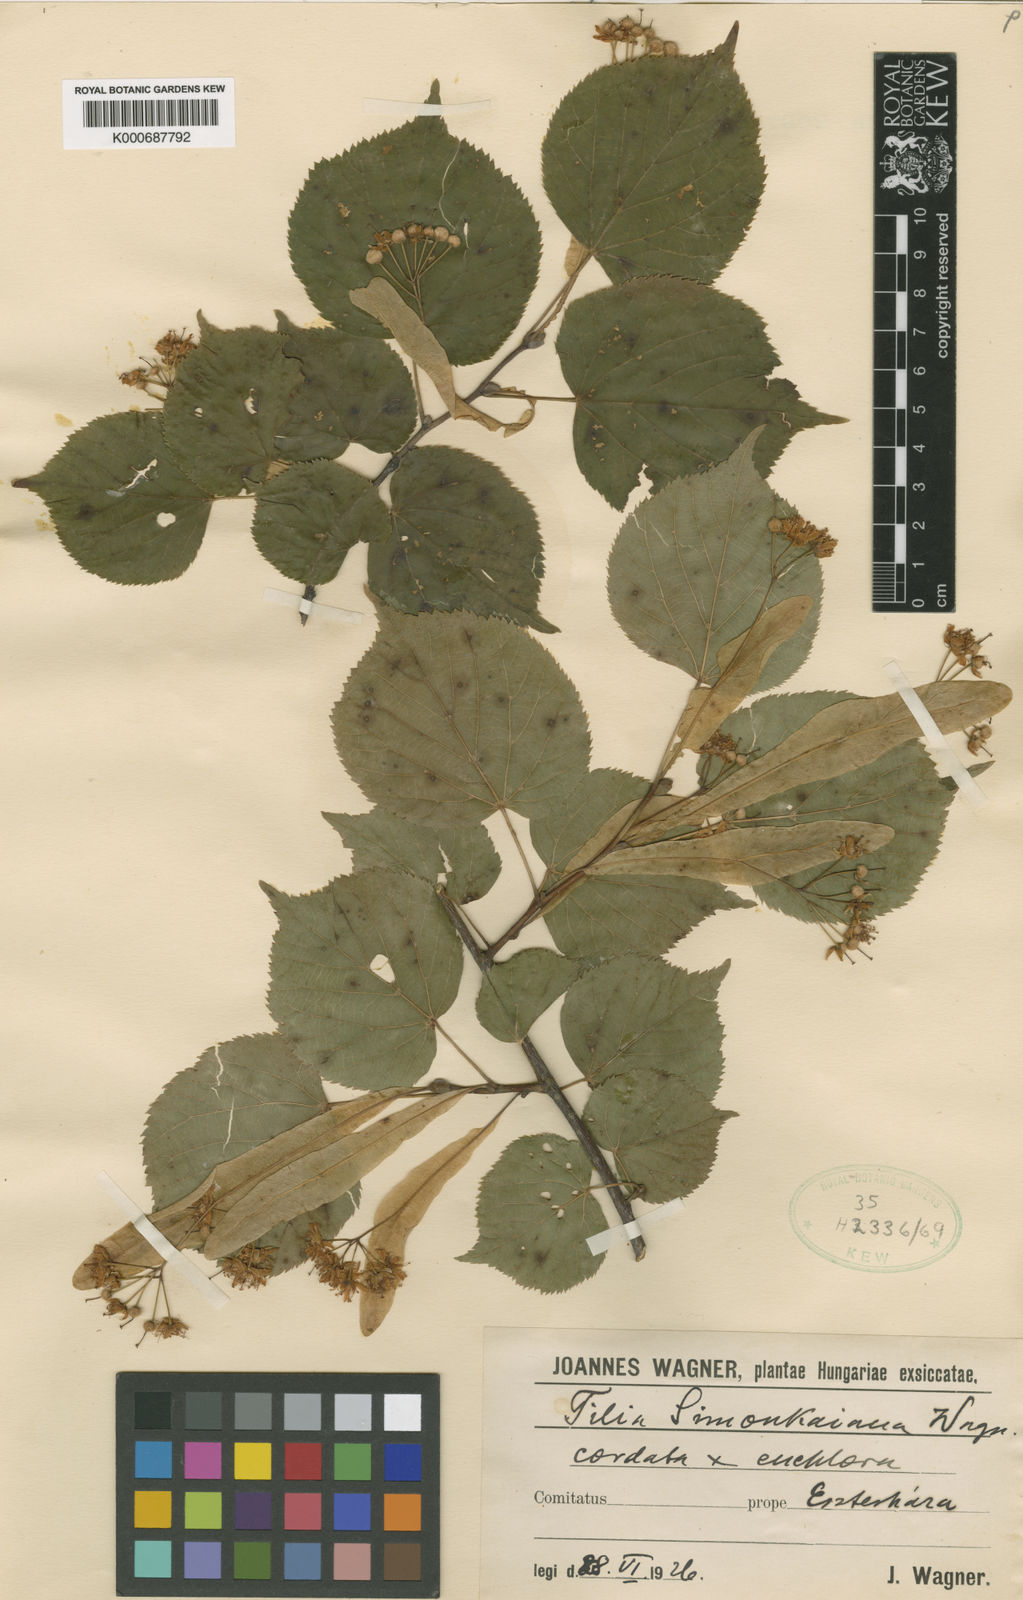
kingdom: Plantae
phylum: Tracheophyta
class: Magnoliopsida
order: Malvales
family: Malvaceae
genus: Tilia
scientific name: Tilia
